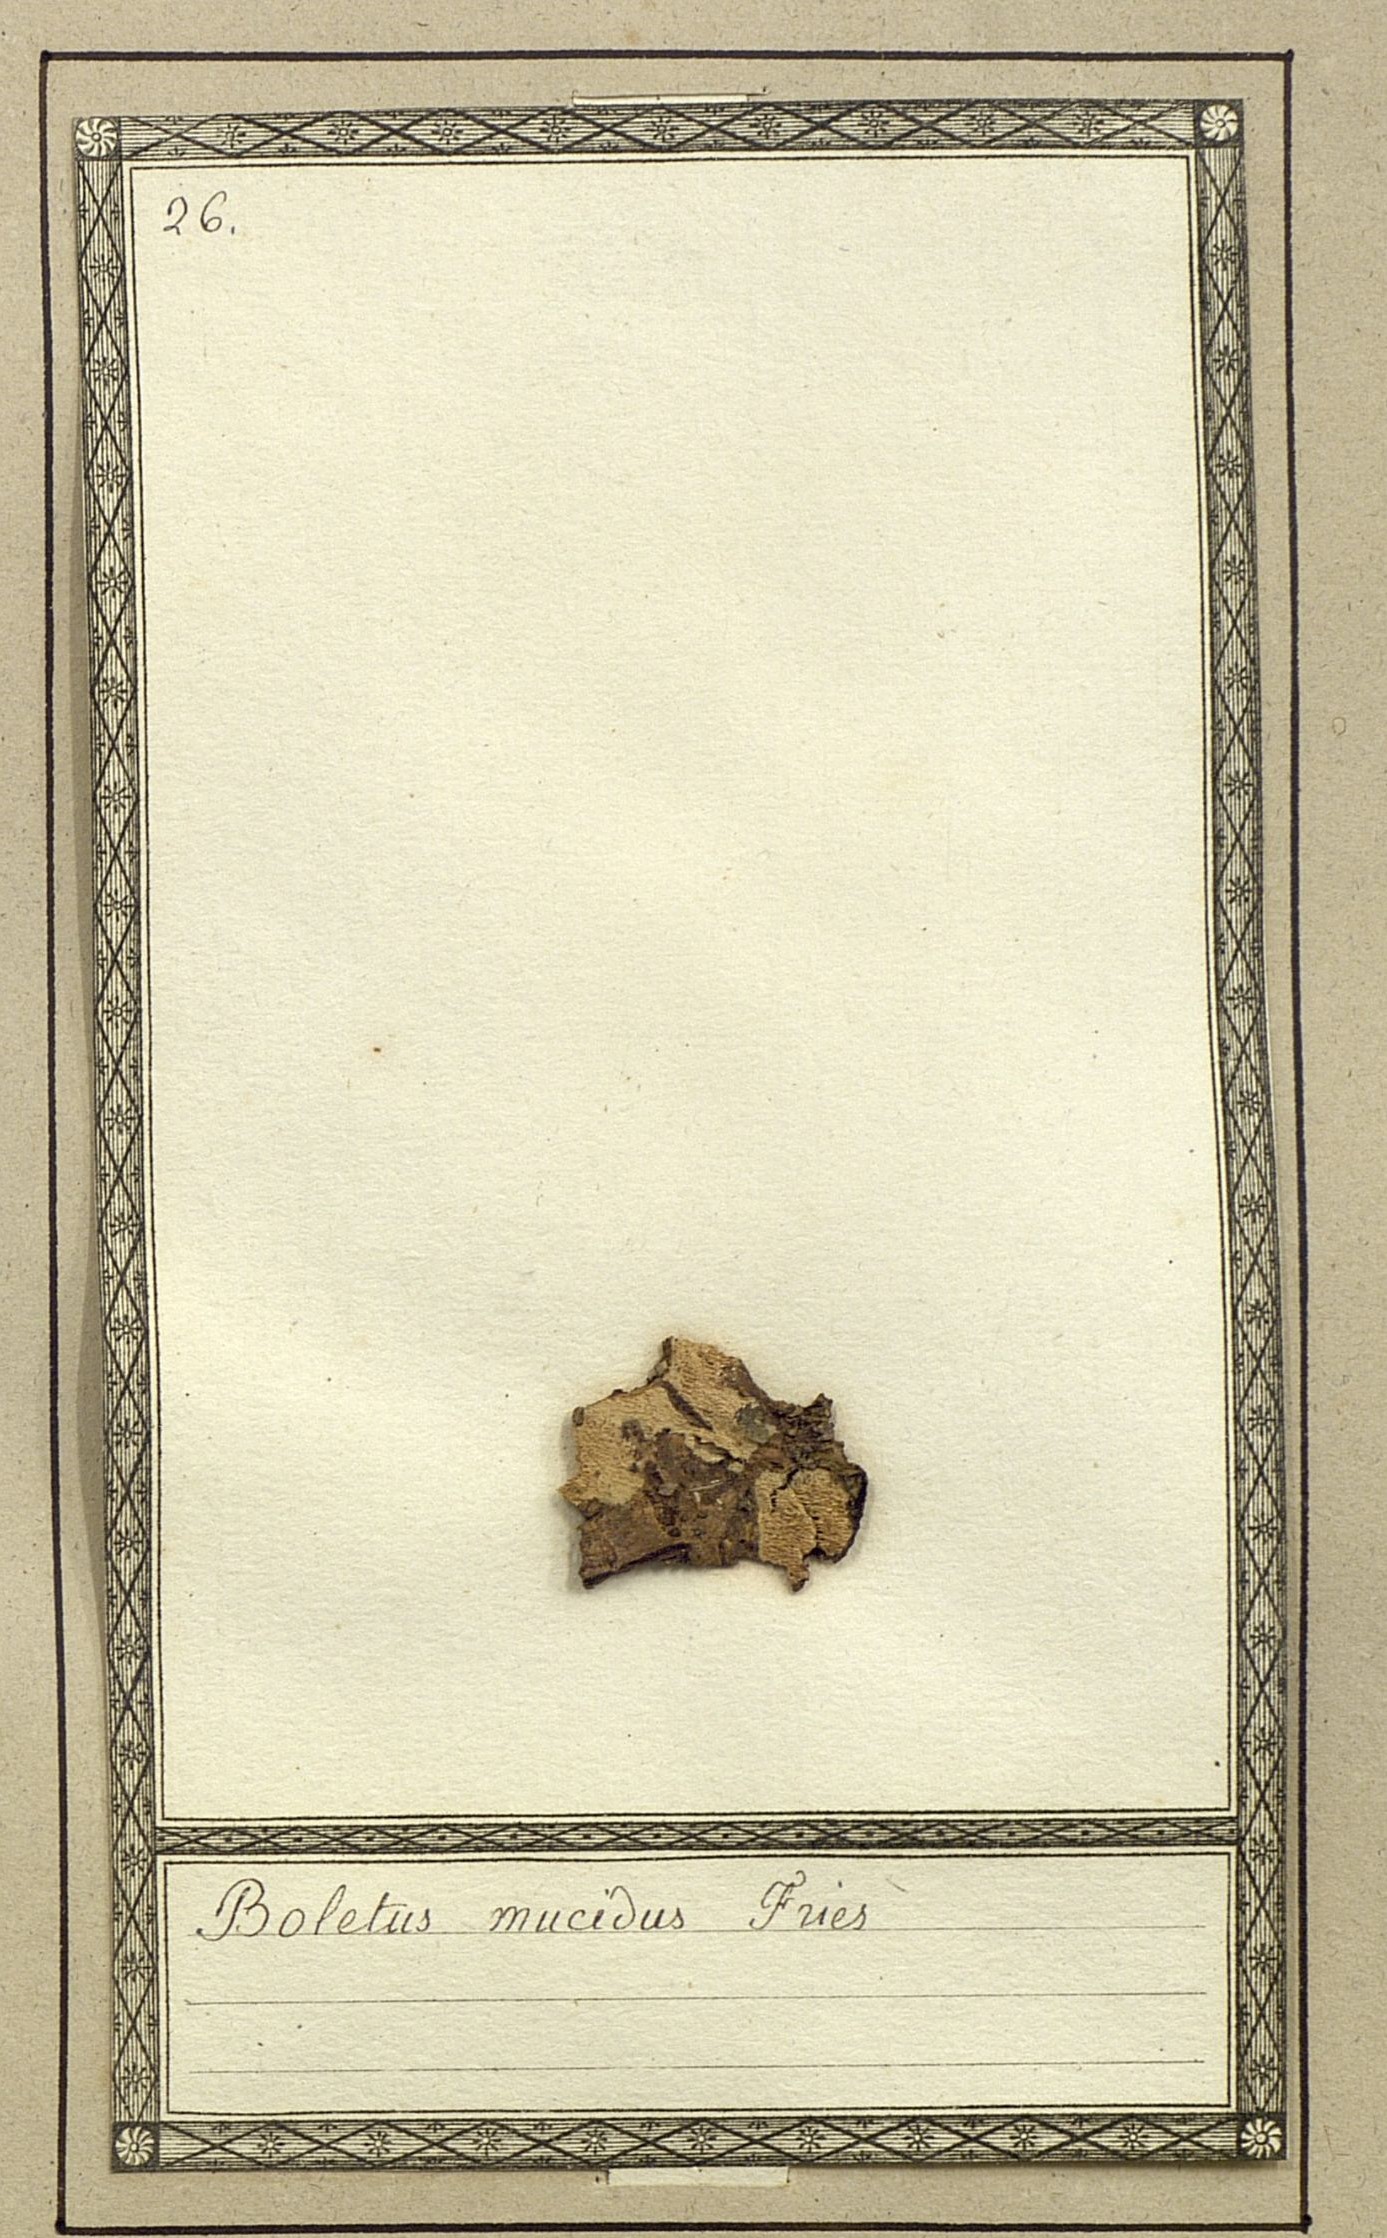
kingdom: Fungi
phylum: Basidiomycota
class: Agaricomycetes
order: Boletales
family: Boletaceae
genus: Austroboletus
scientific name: Austroboletus mucosus
